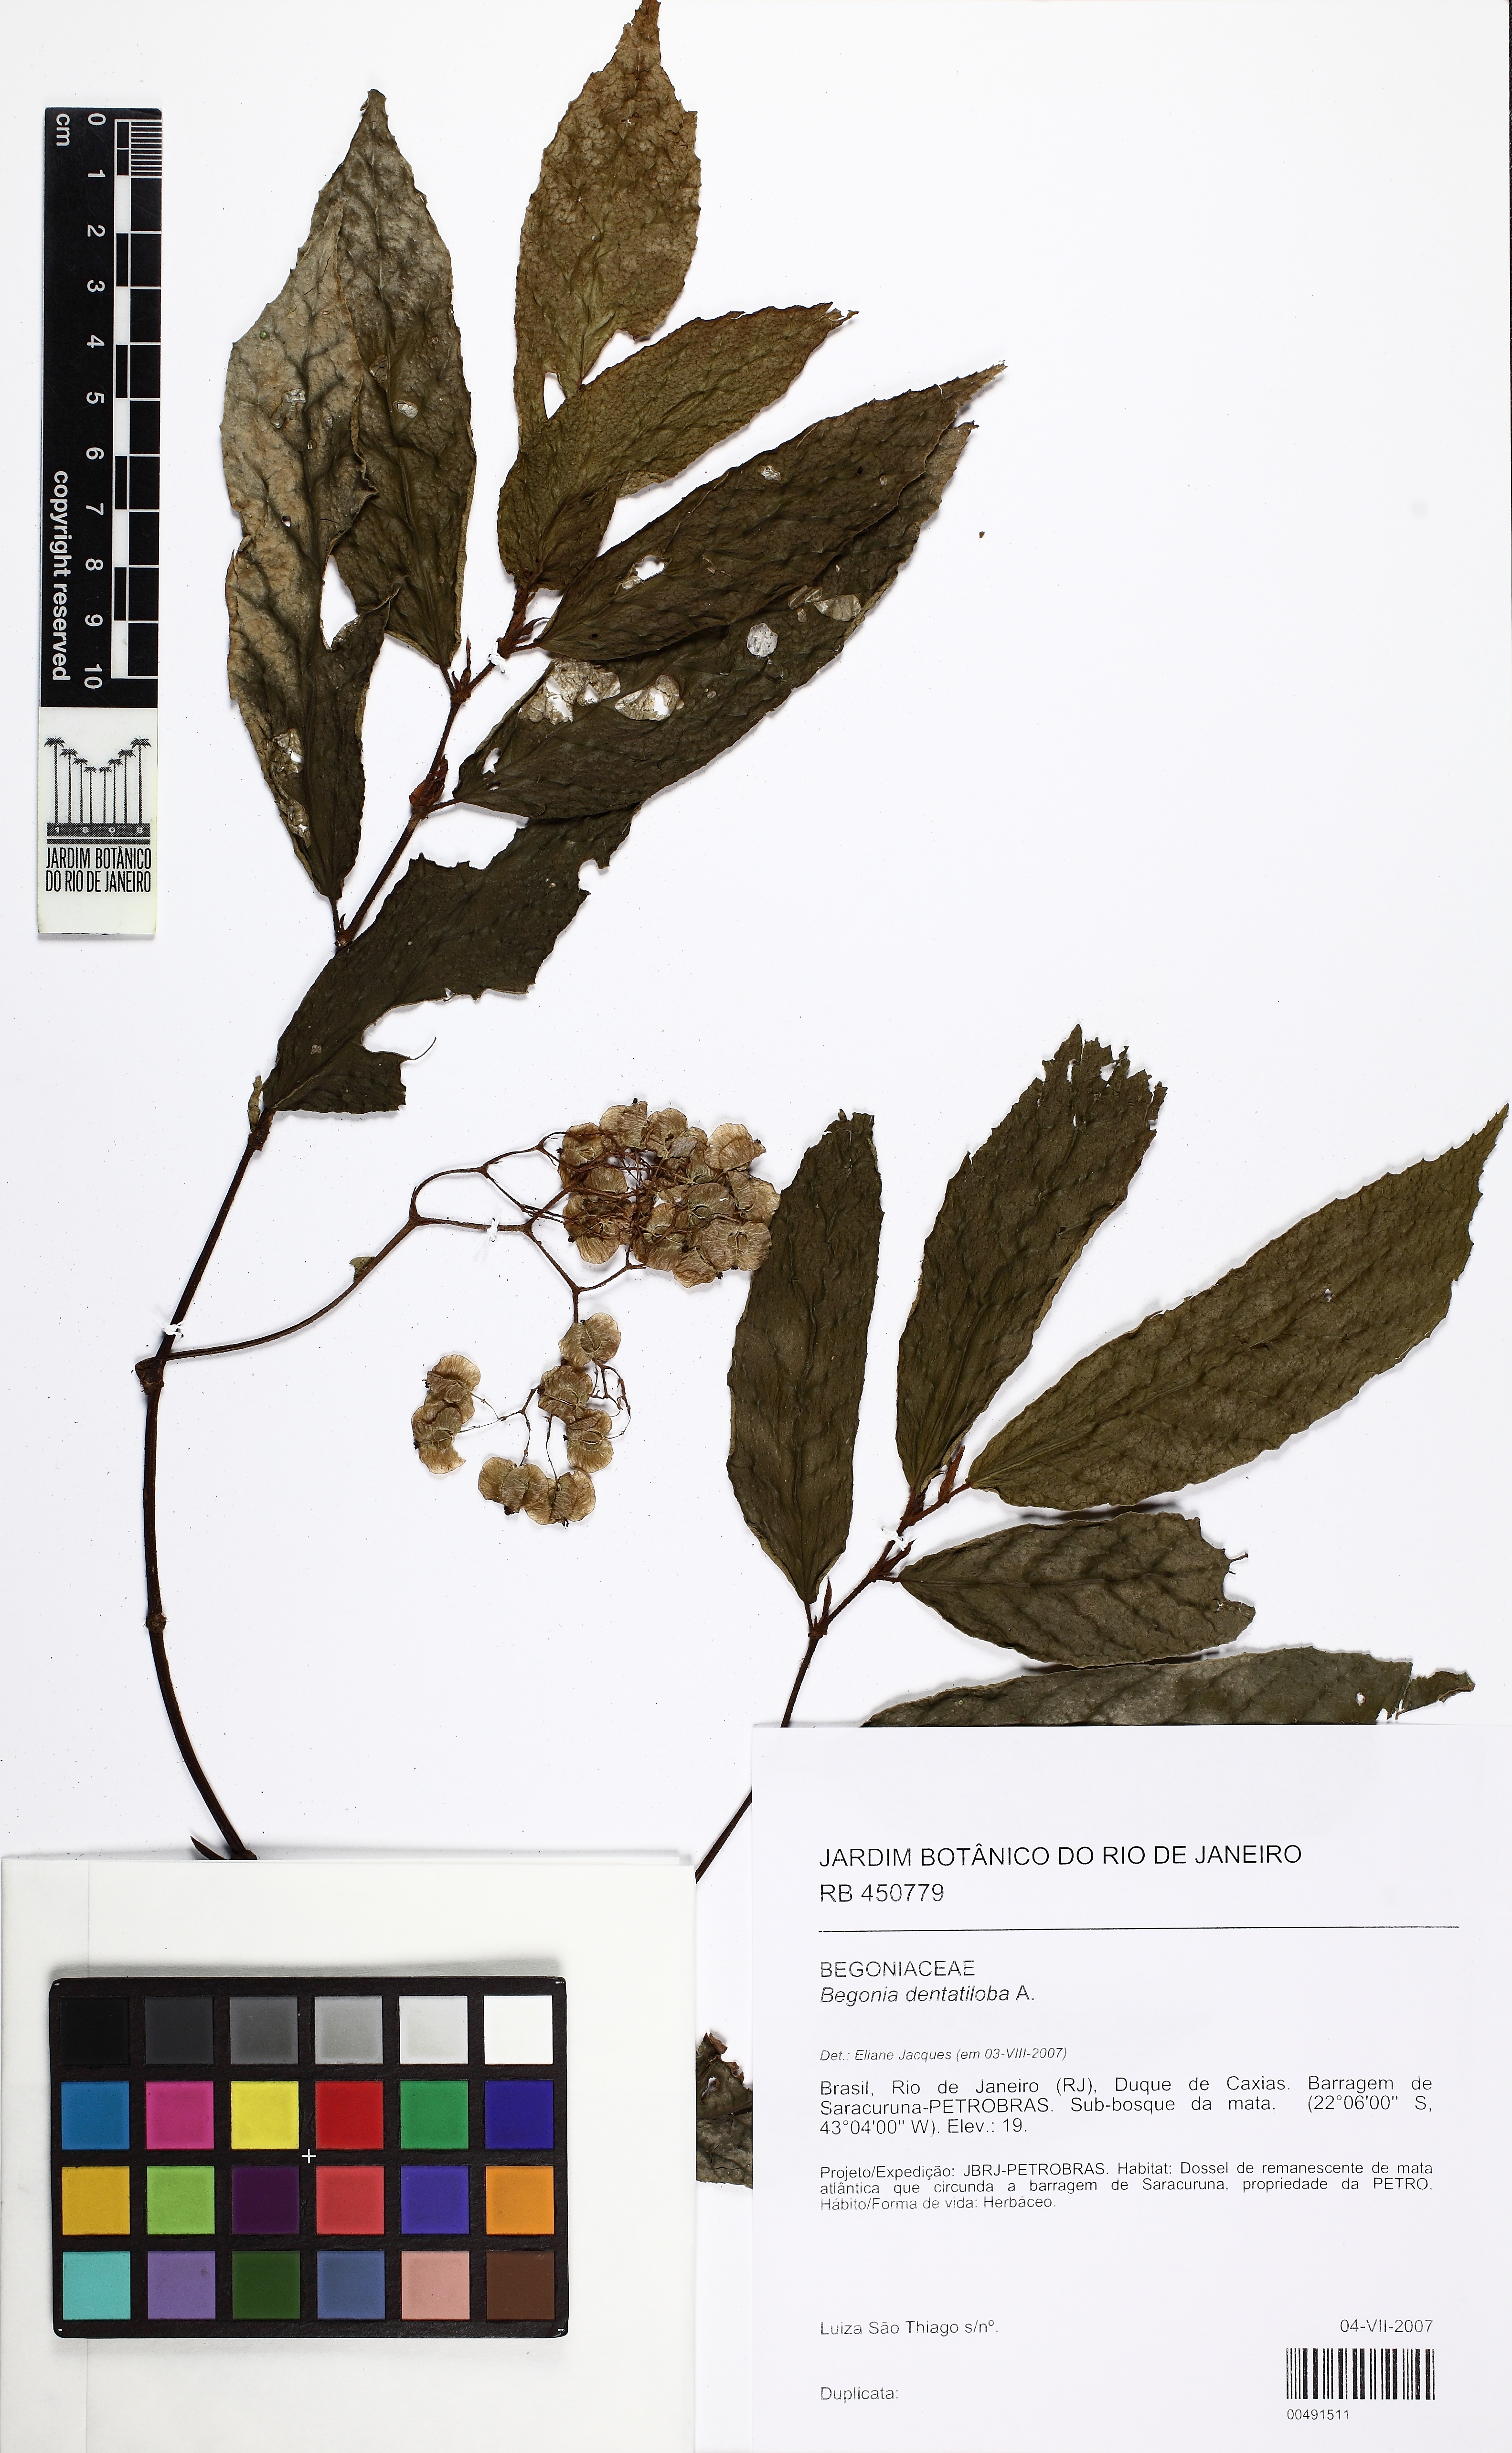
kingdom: Plantae
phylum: Tracheophyta
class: Magnoliopsida
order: Cucurbitales
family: Begoniaceae
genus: Begonia
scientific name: Begonia dentatiloba
